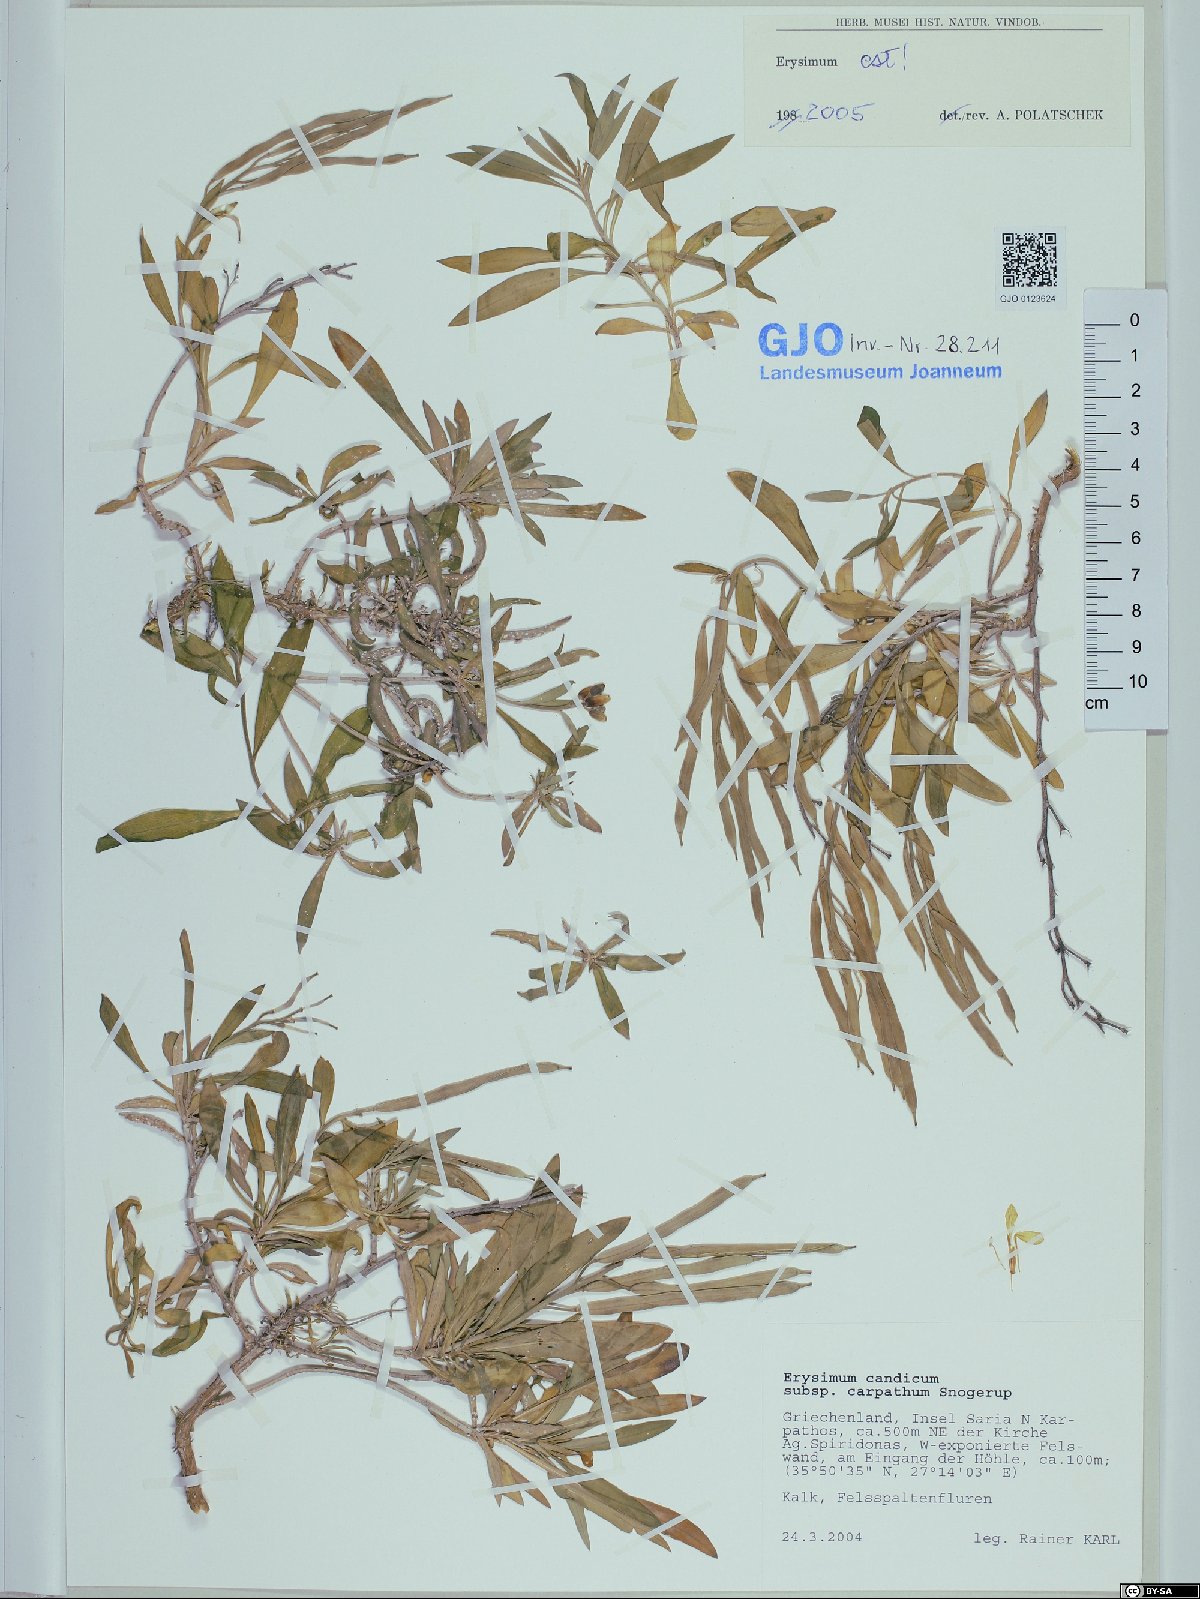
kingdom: Plantae
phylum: Tracheophyta
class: Magnoliopsida
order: Brassicales
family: Brassicaceae
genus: Erysimum
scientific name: Erysimum candicum
